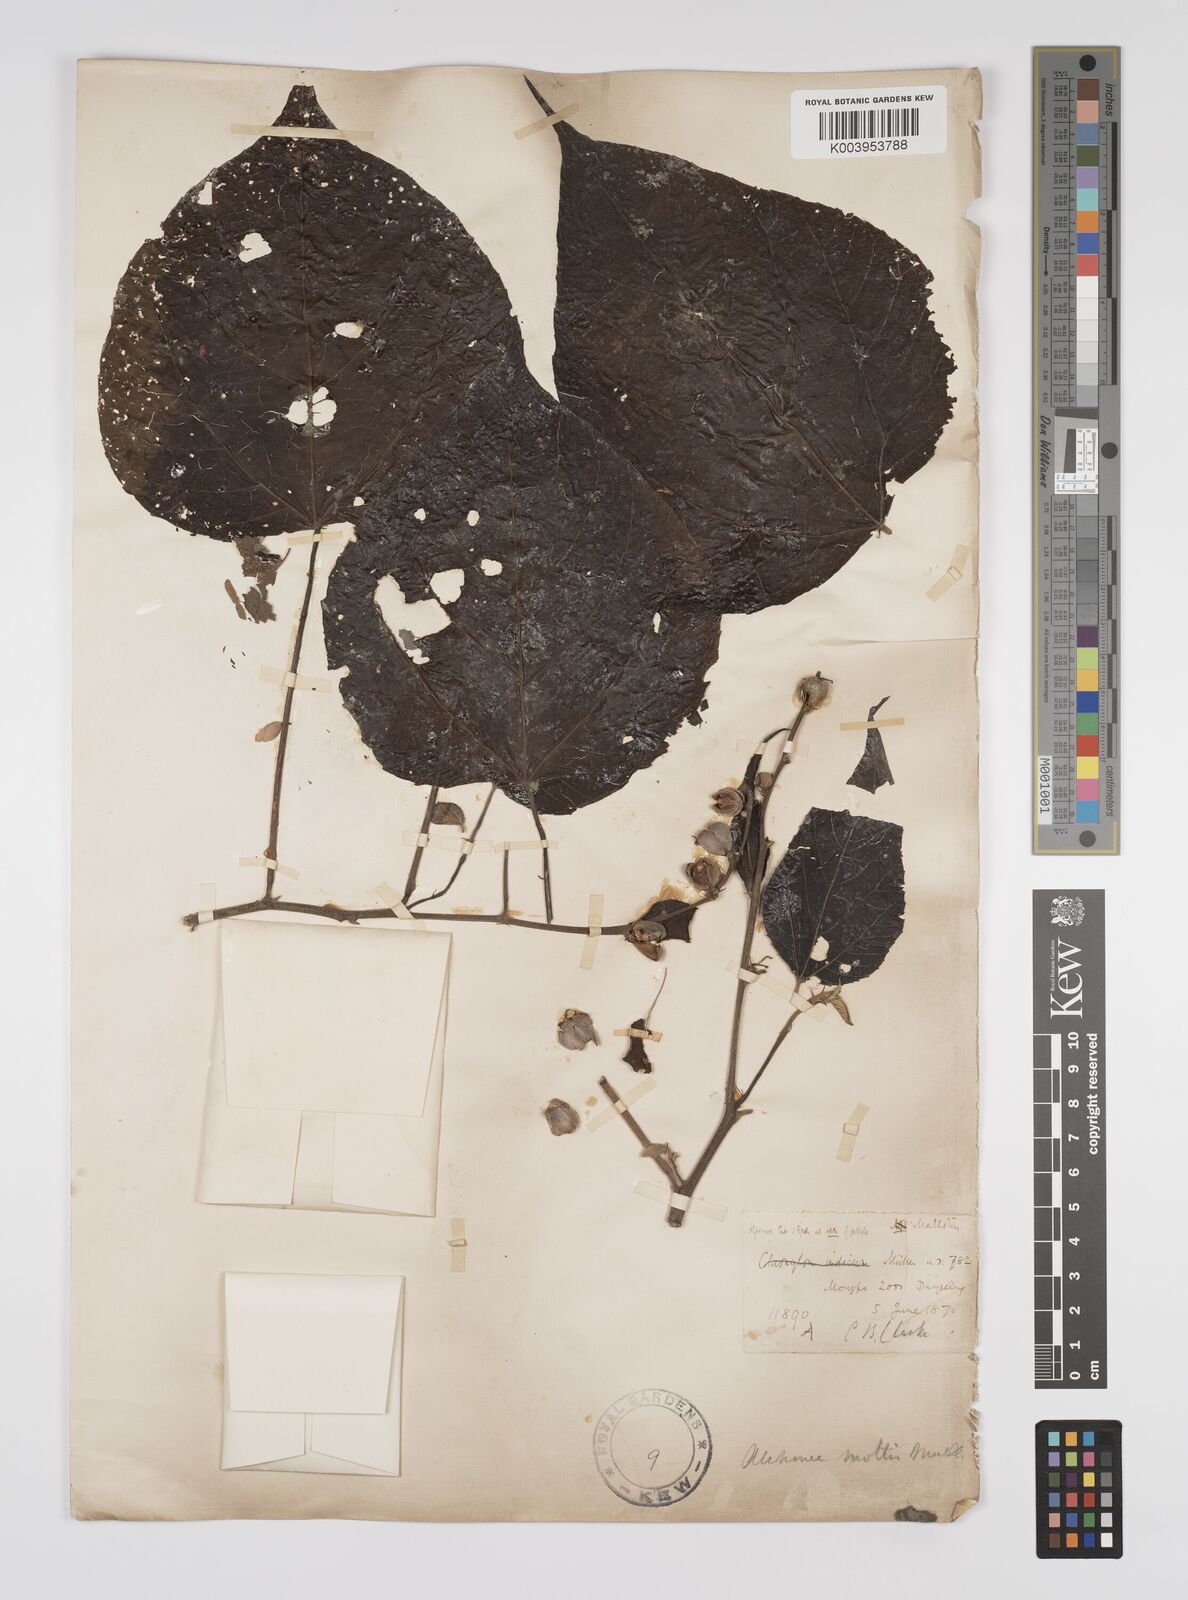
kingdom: Plantae
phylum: Tracheophyta
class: Magnoliopsida
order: Malpighiales
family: Euphorbiaceae
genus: Alchornea
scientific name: Alchornea mollis
